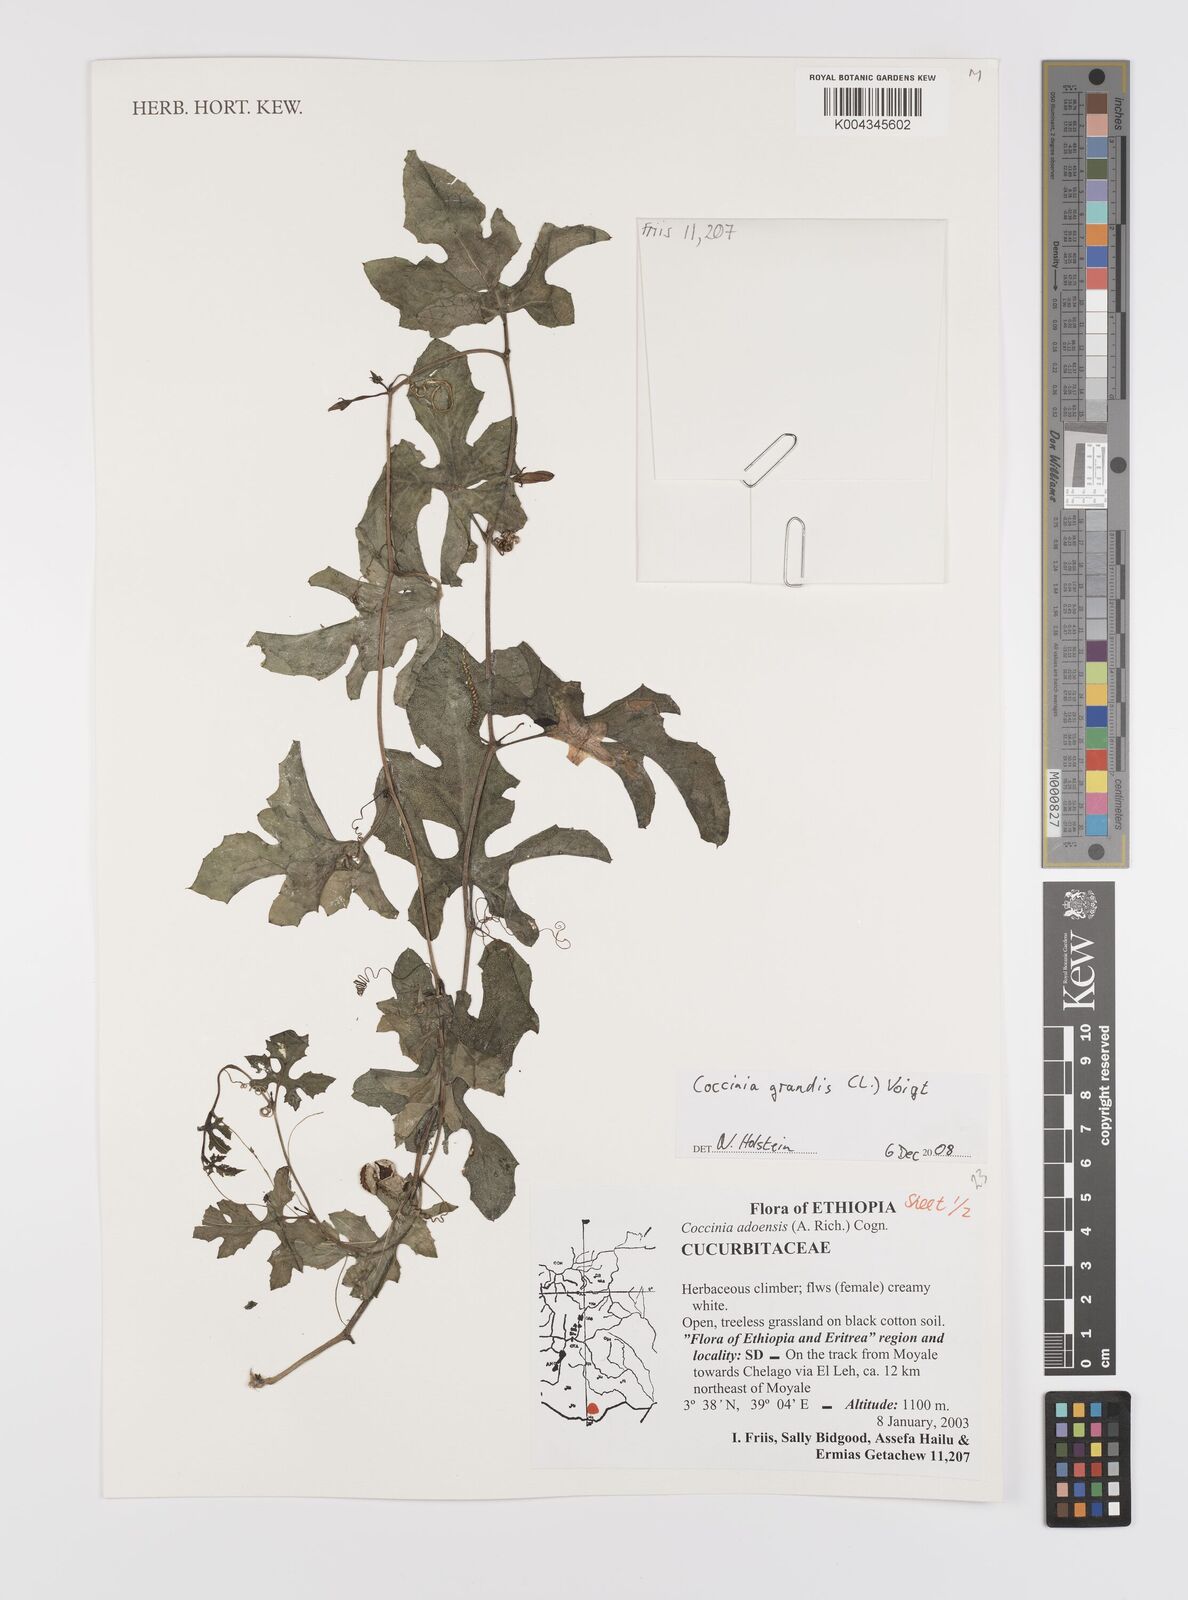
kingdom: Plantae
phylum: Tracheophyta
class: Magnoliopsida
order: Cucurbitales
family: Cucurbitaceae
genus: Coccinia
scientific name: Coccinia grandis
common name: Ivy gourd
